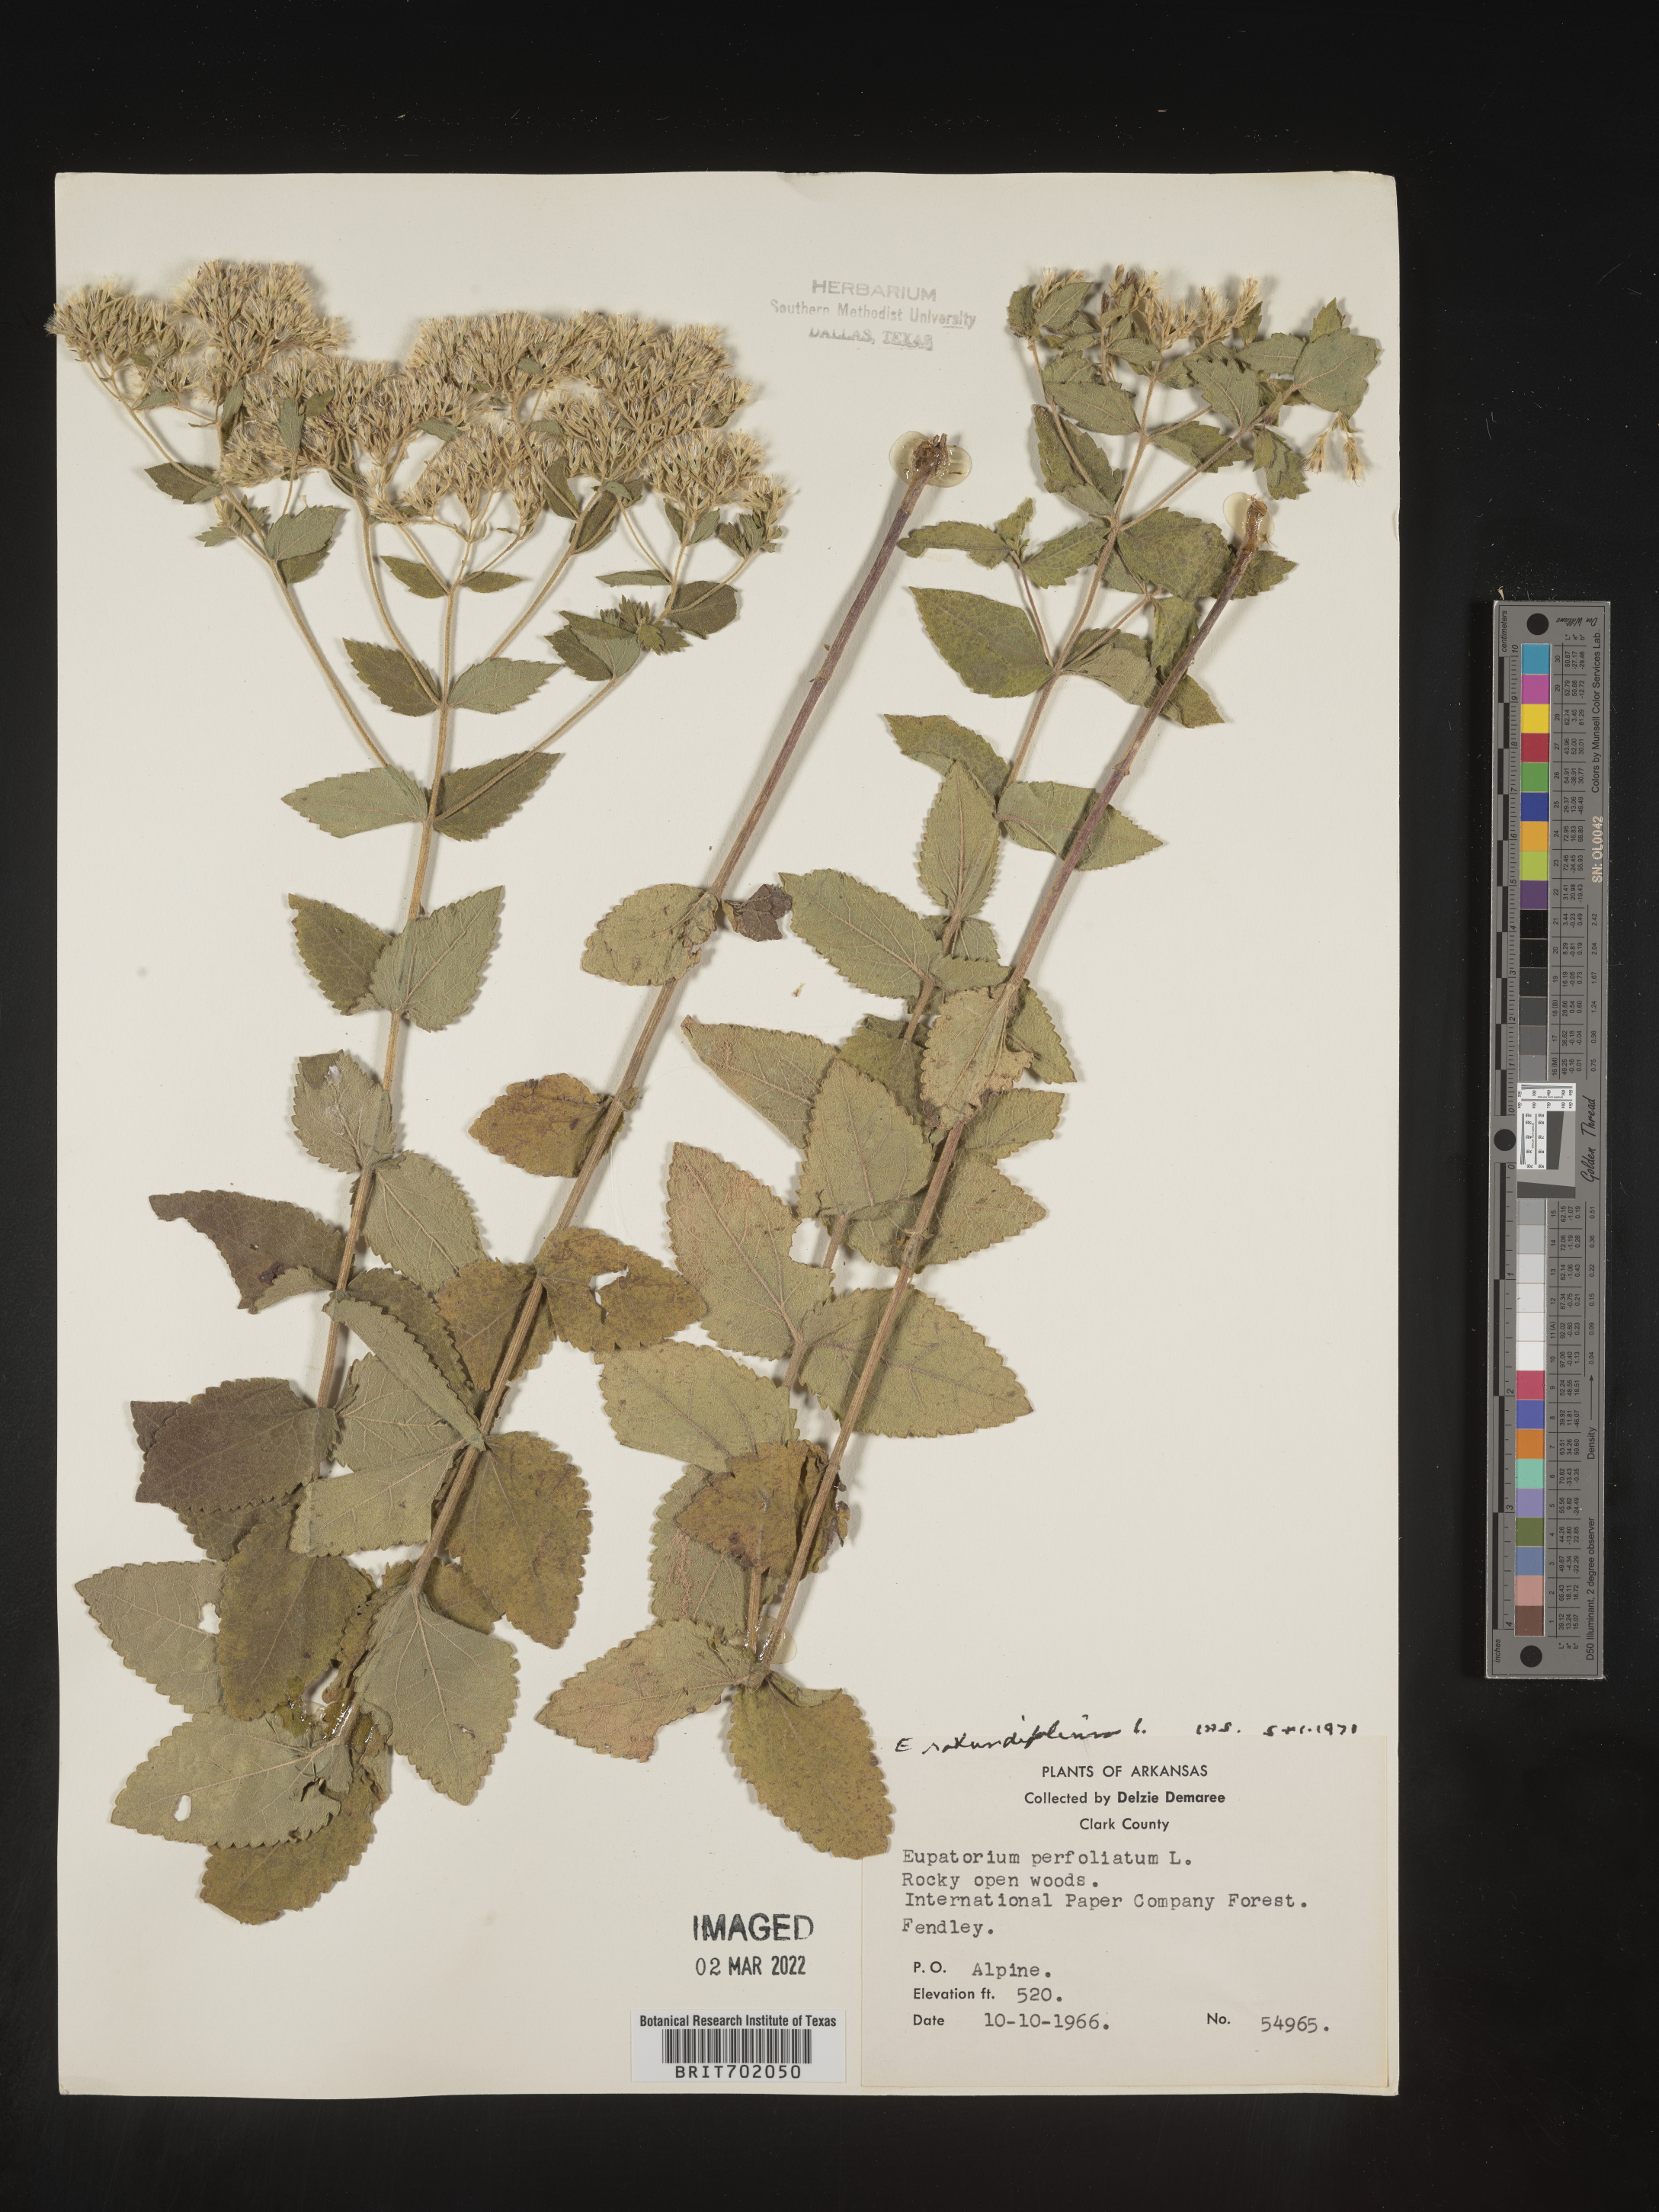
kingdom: Plantae
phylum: Tracheophyta
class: Magnoliopsida
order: Asterales
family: Asteraceae
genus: Eupatorium
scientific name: Eupatorium rotundifolium
